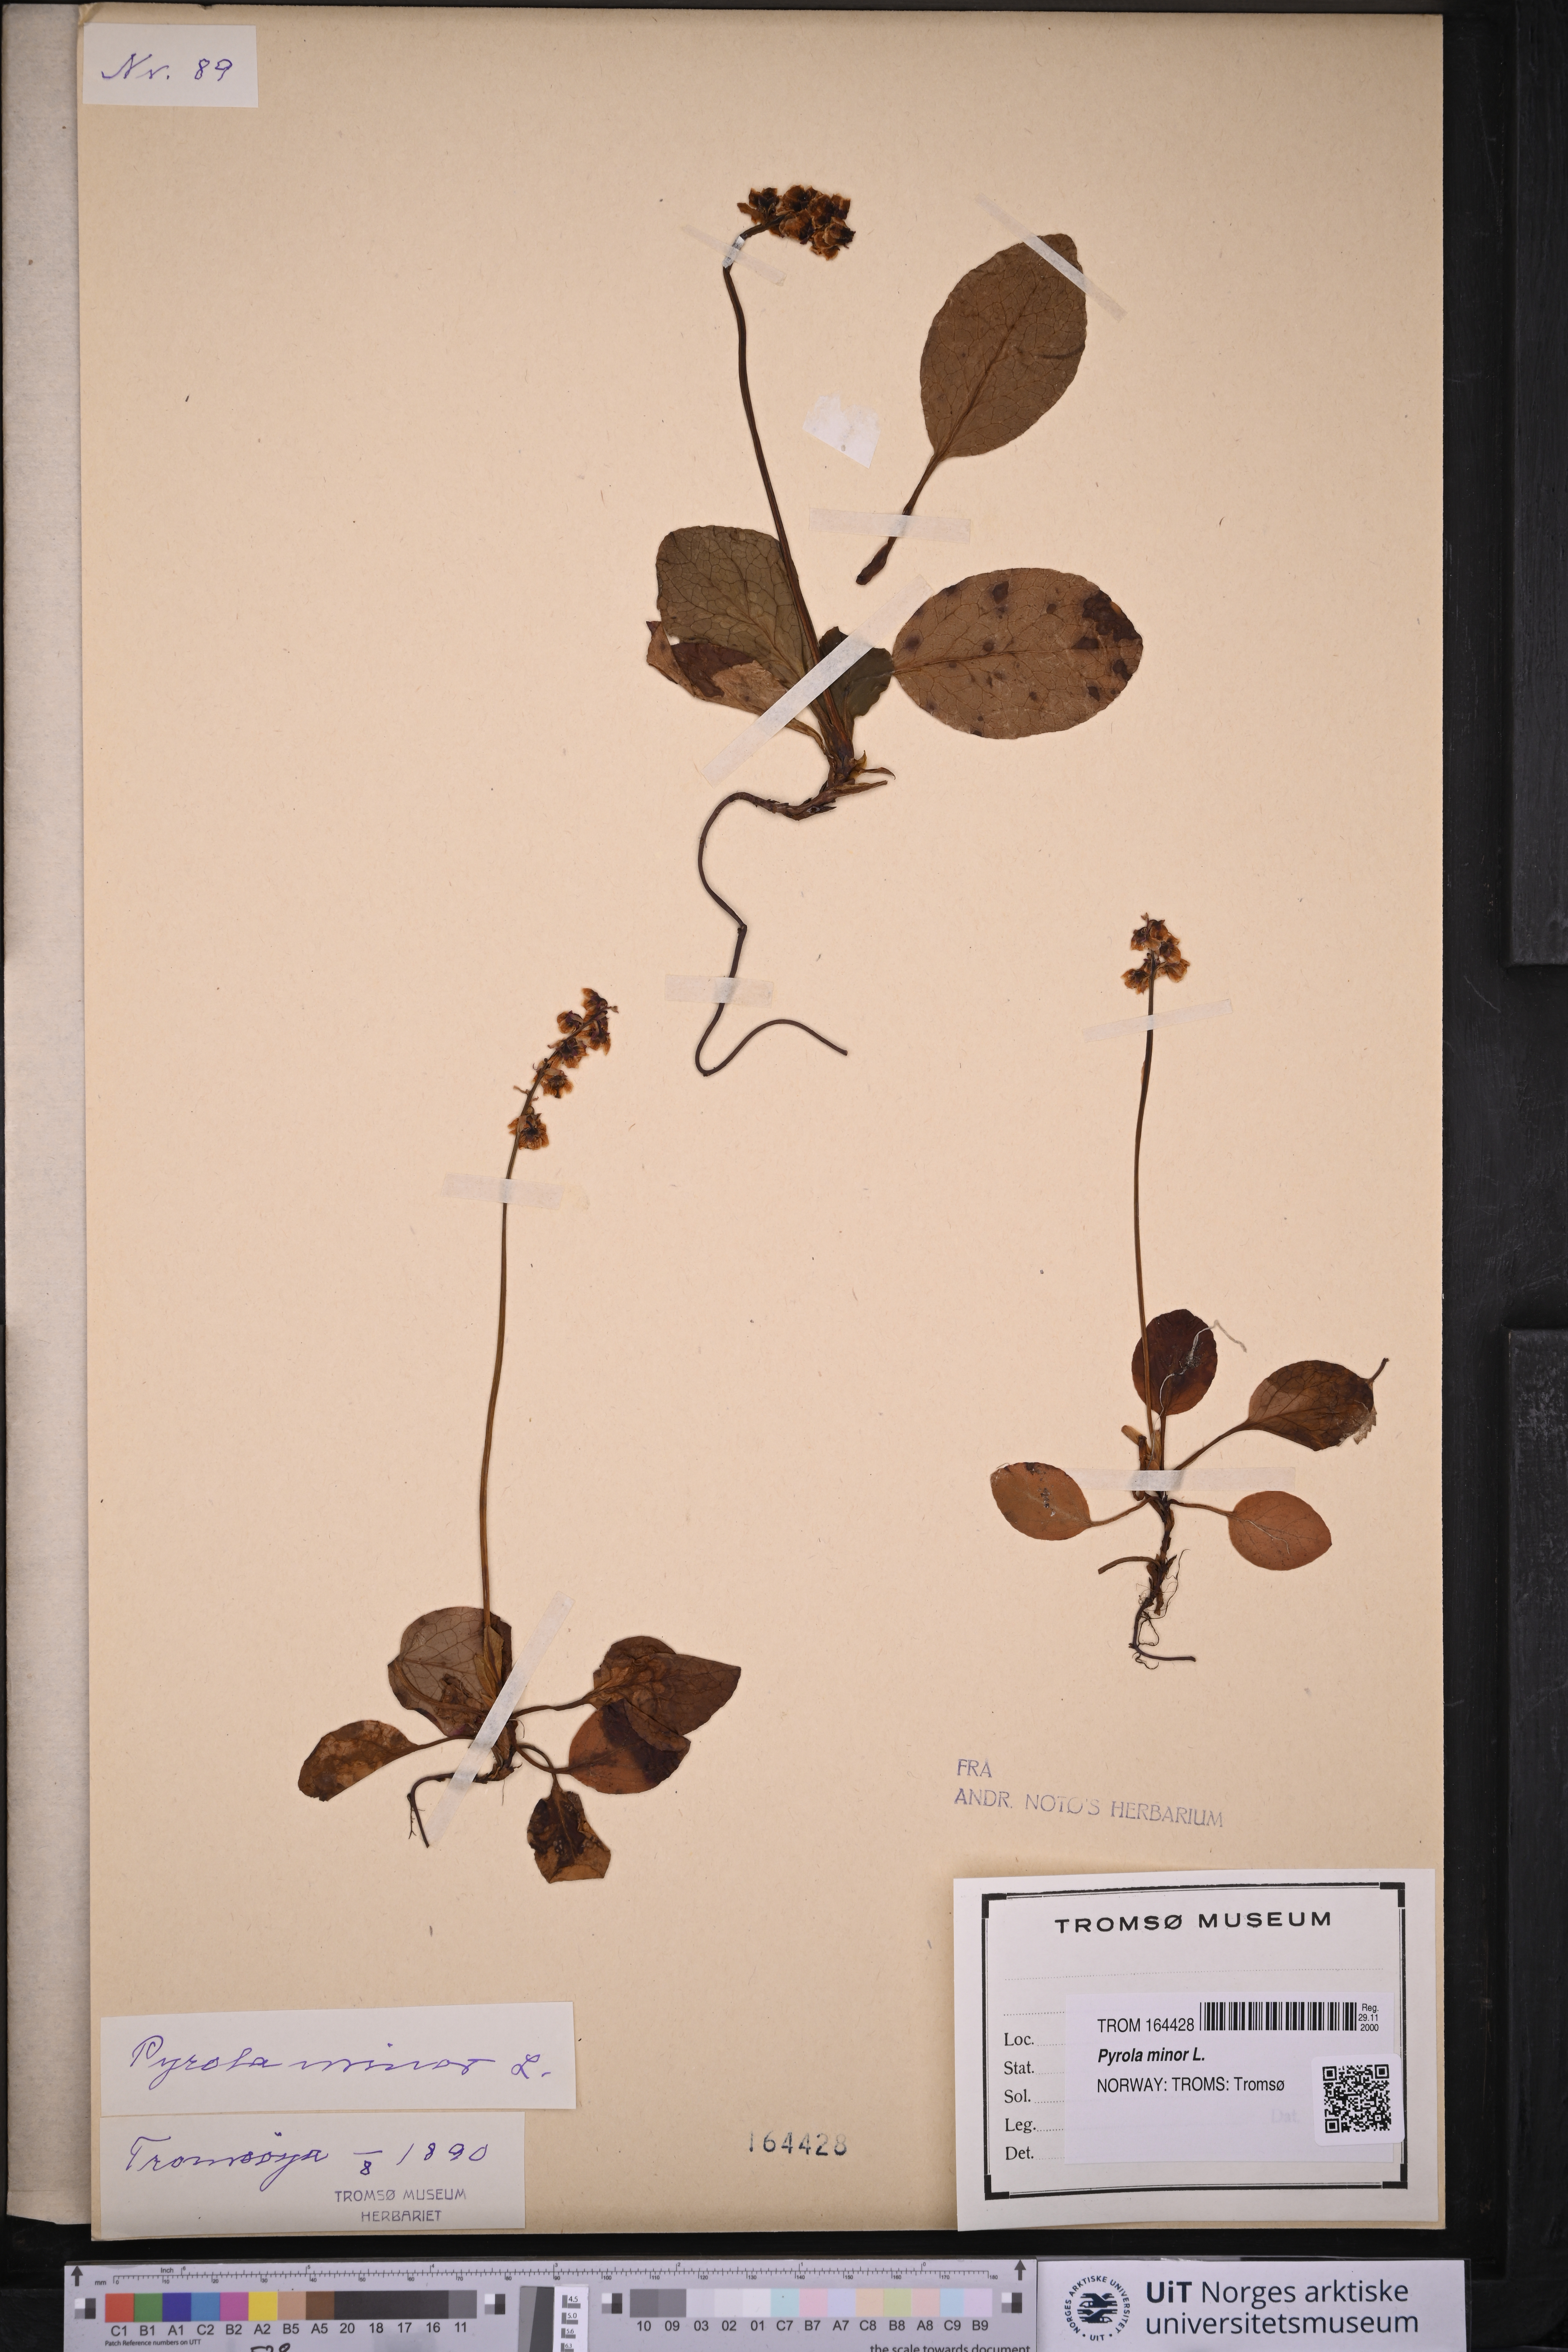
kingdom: Plantae
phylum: Tracheophyta
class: Magnoliopsida
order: Ericales
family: Ericaceae
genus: Pyrola
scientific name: Pyrola minor
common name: Common wintergreen
